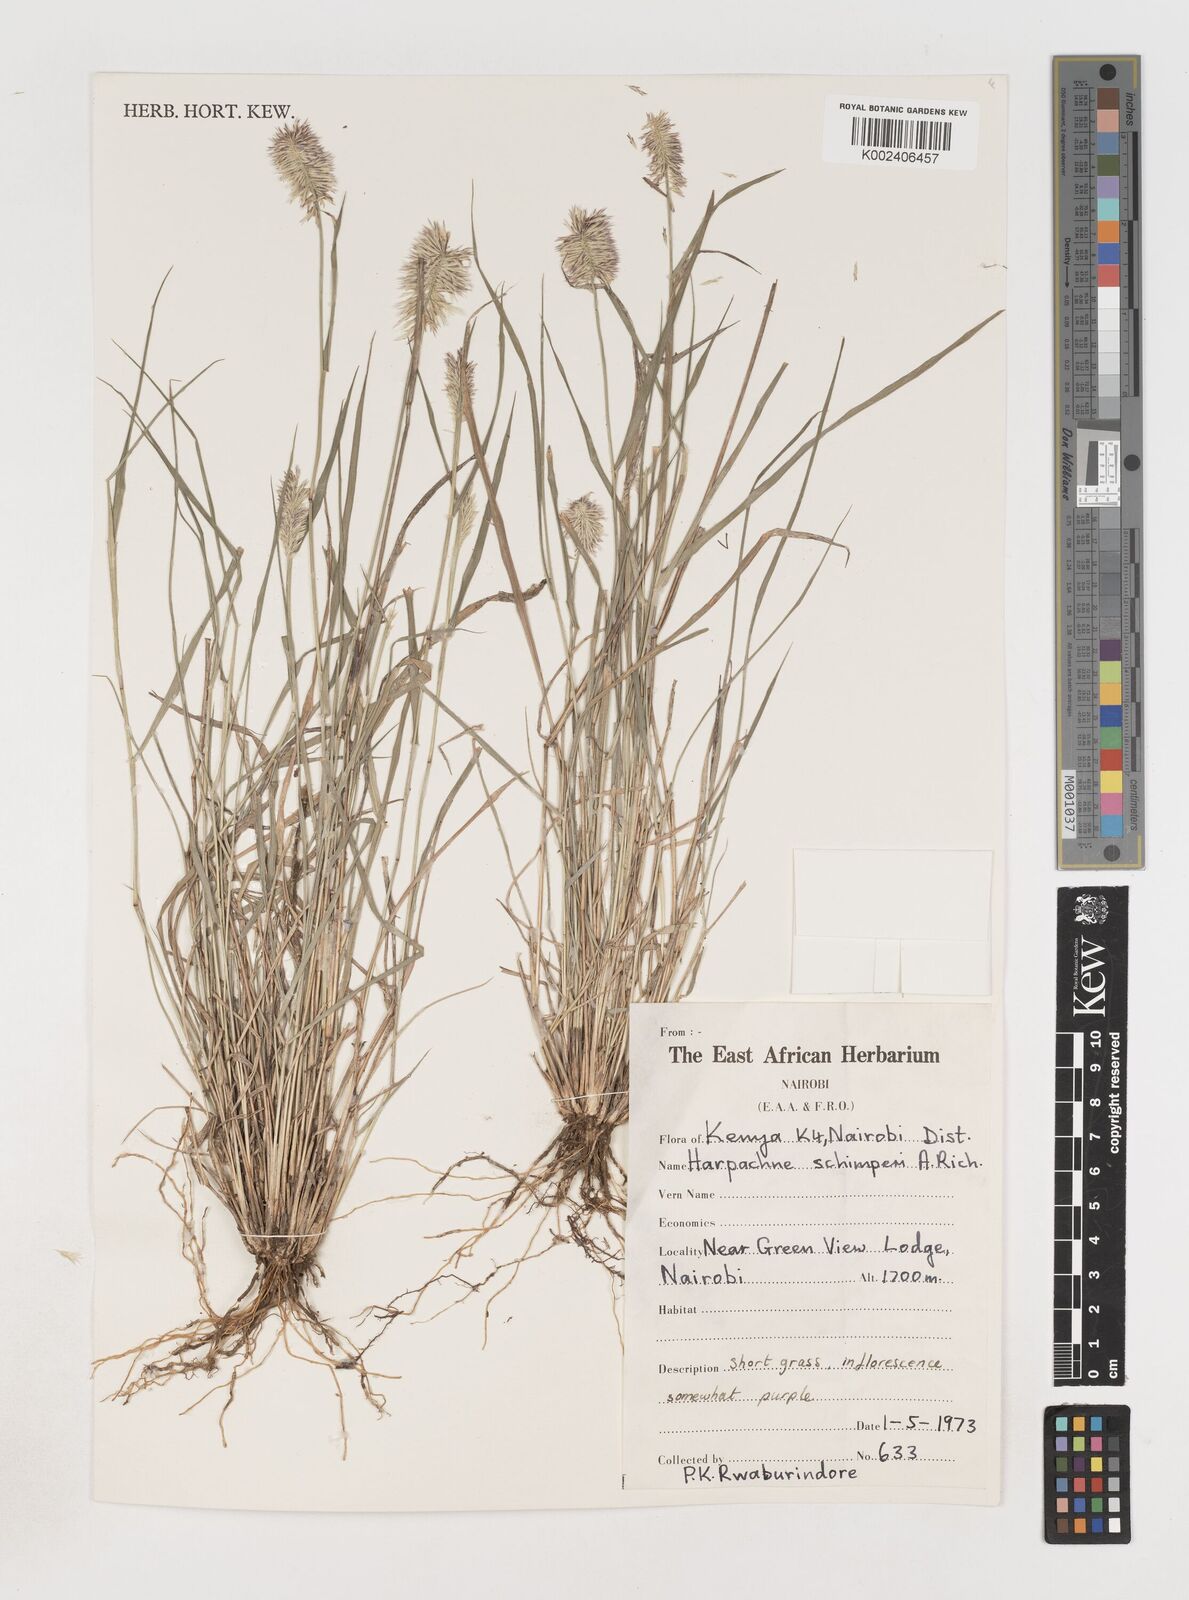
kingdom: Plantae
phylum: Tracheophyta
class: Liliopsida
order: Poales
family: Poaceae
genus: Harpachne
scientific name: Harpachne schimperi
